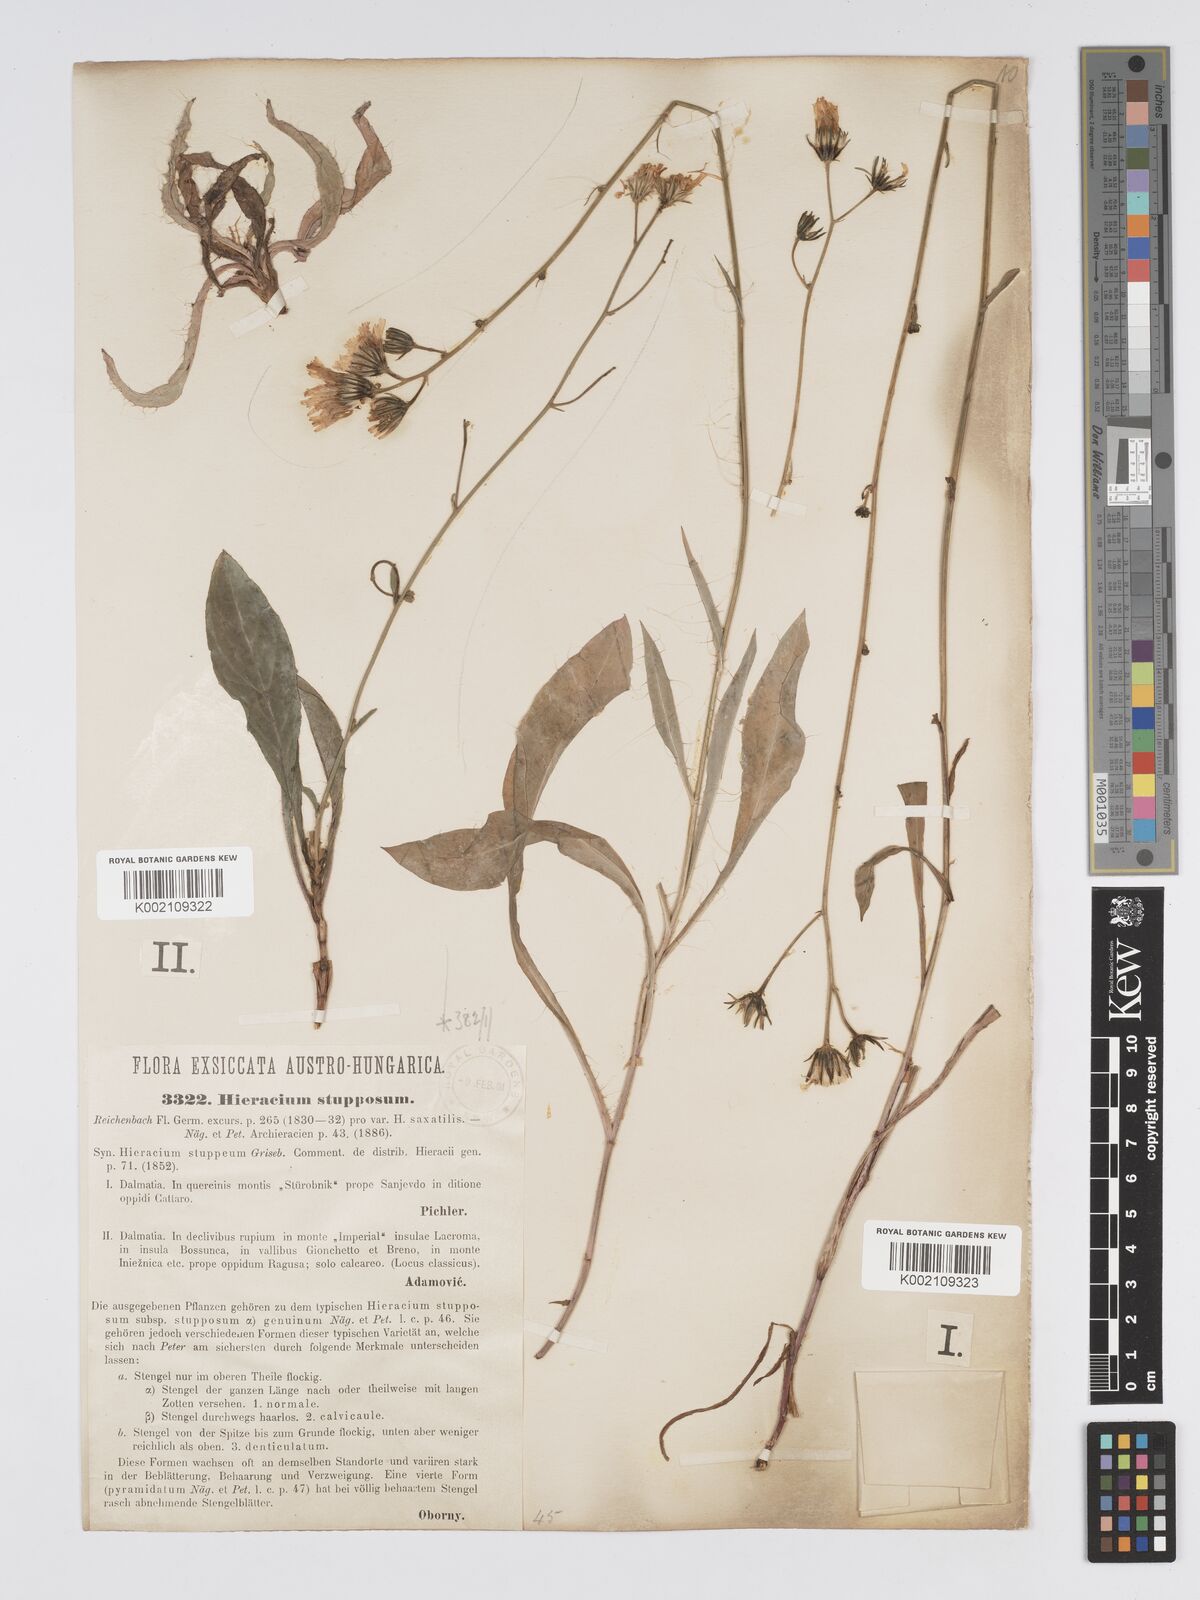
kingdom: Plantae
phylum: Tracheophyta
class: Magnoliopsida
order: Asterales
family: Asteraceae
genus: Hieracium
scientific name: Hieracium heterogynum
